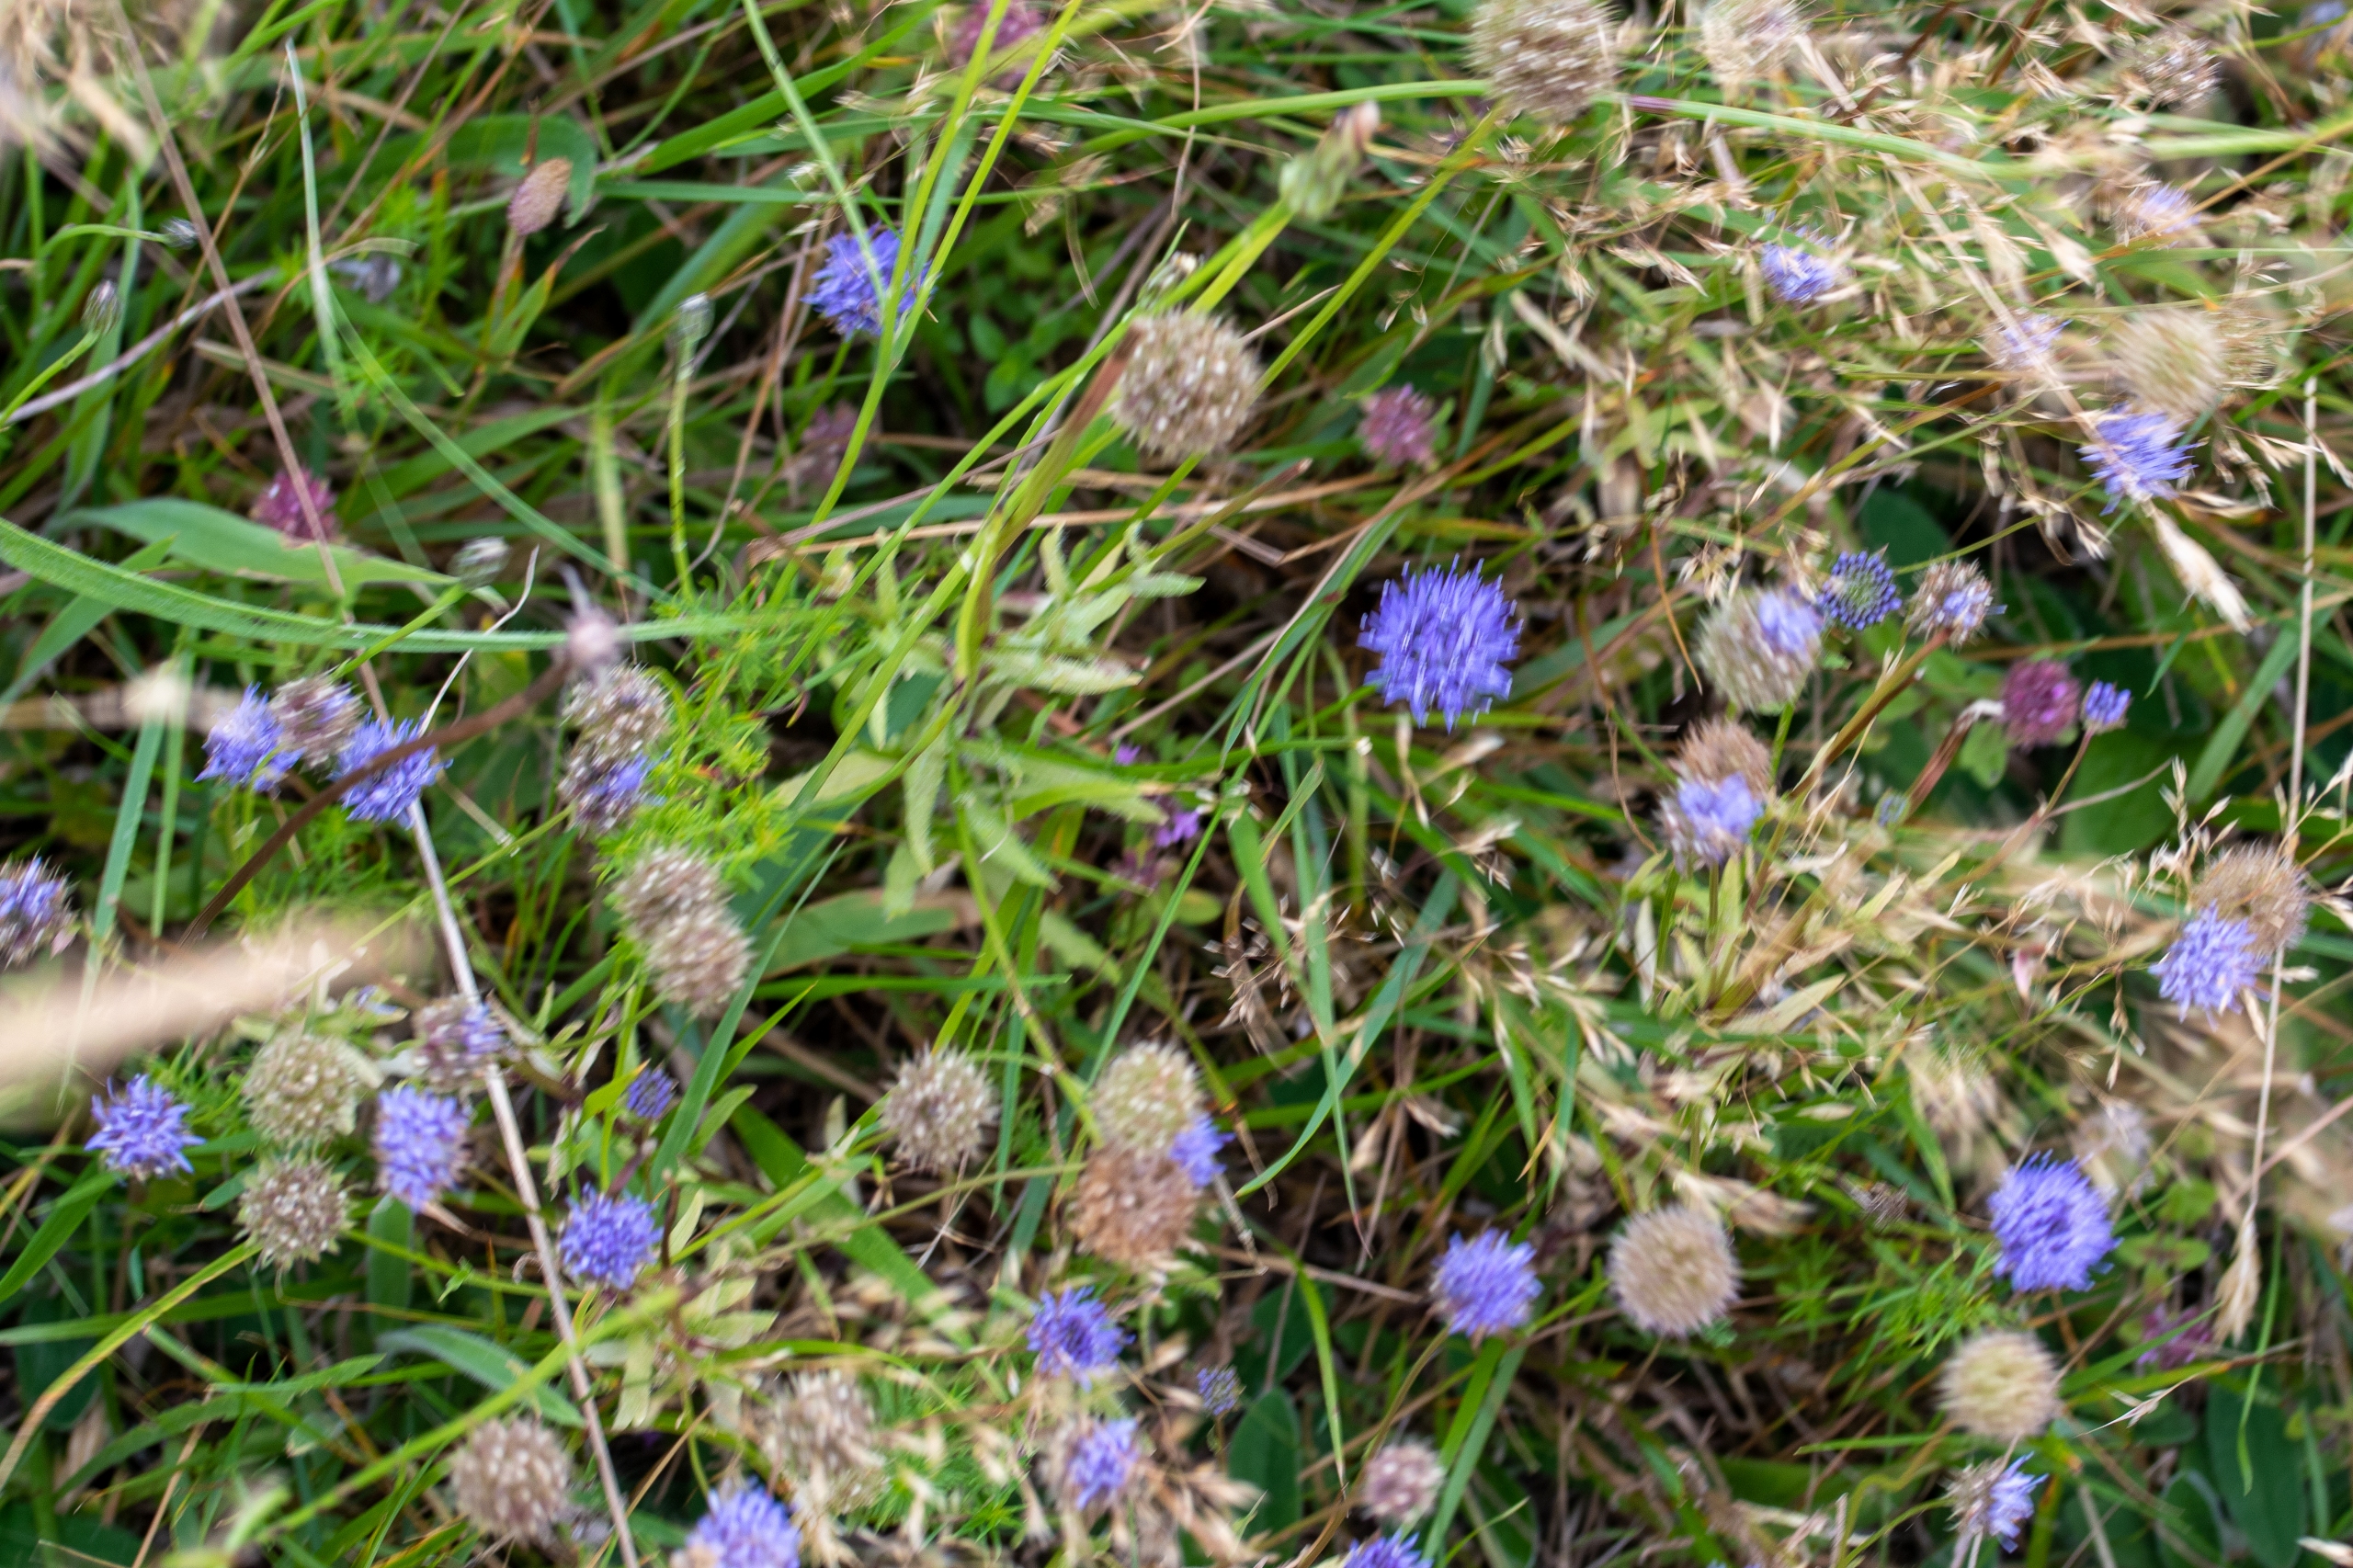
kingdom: Plantae
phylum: Tracheophyta
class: Magnoliopsida
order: Asterales
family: Campanulaceae
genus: Jasione
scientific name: Jasione montana
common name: Blåmunke
